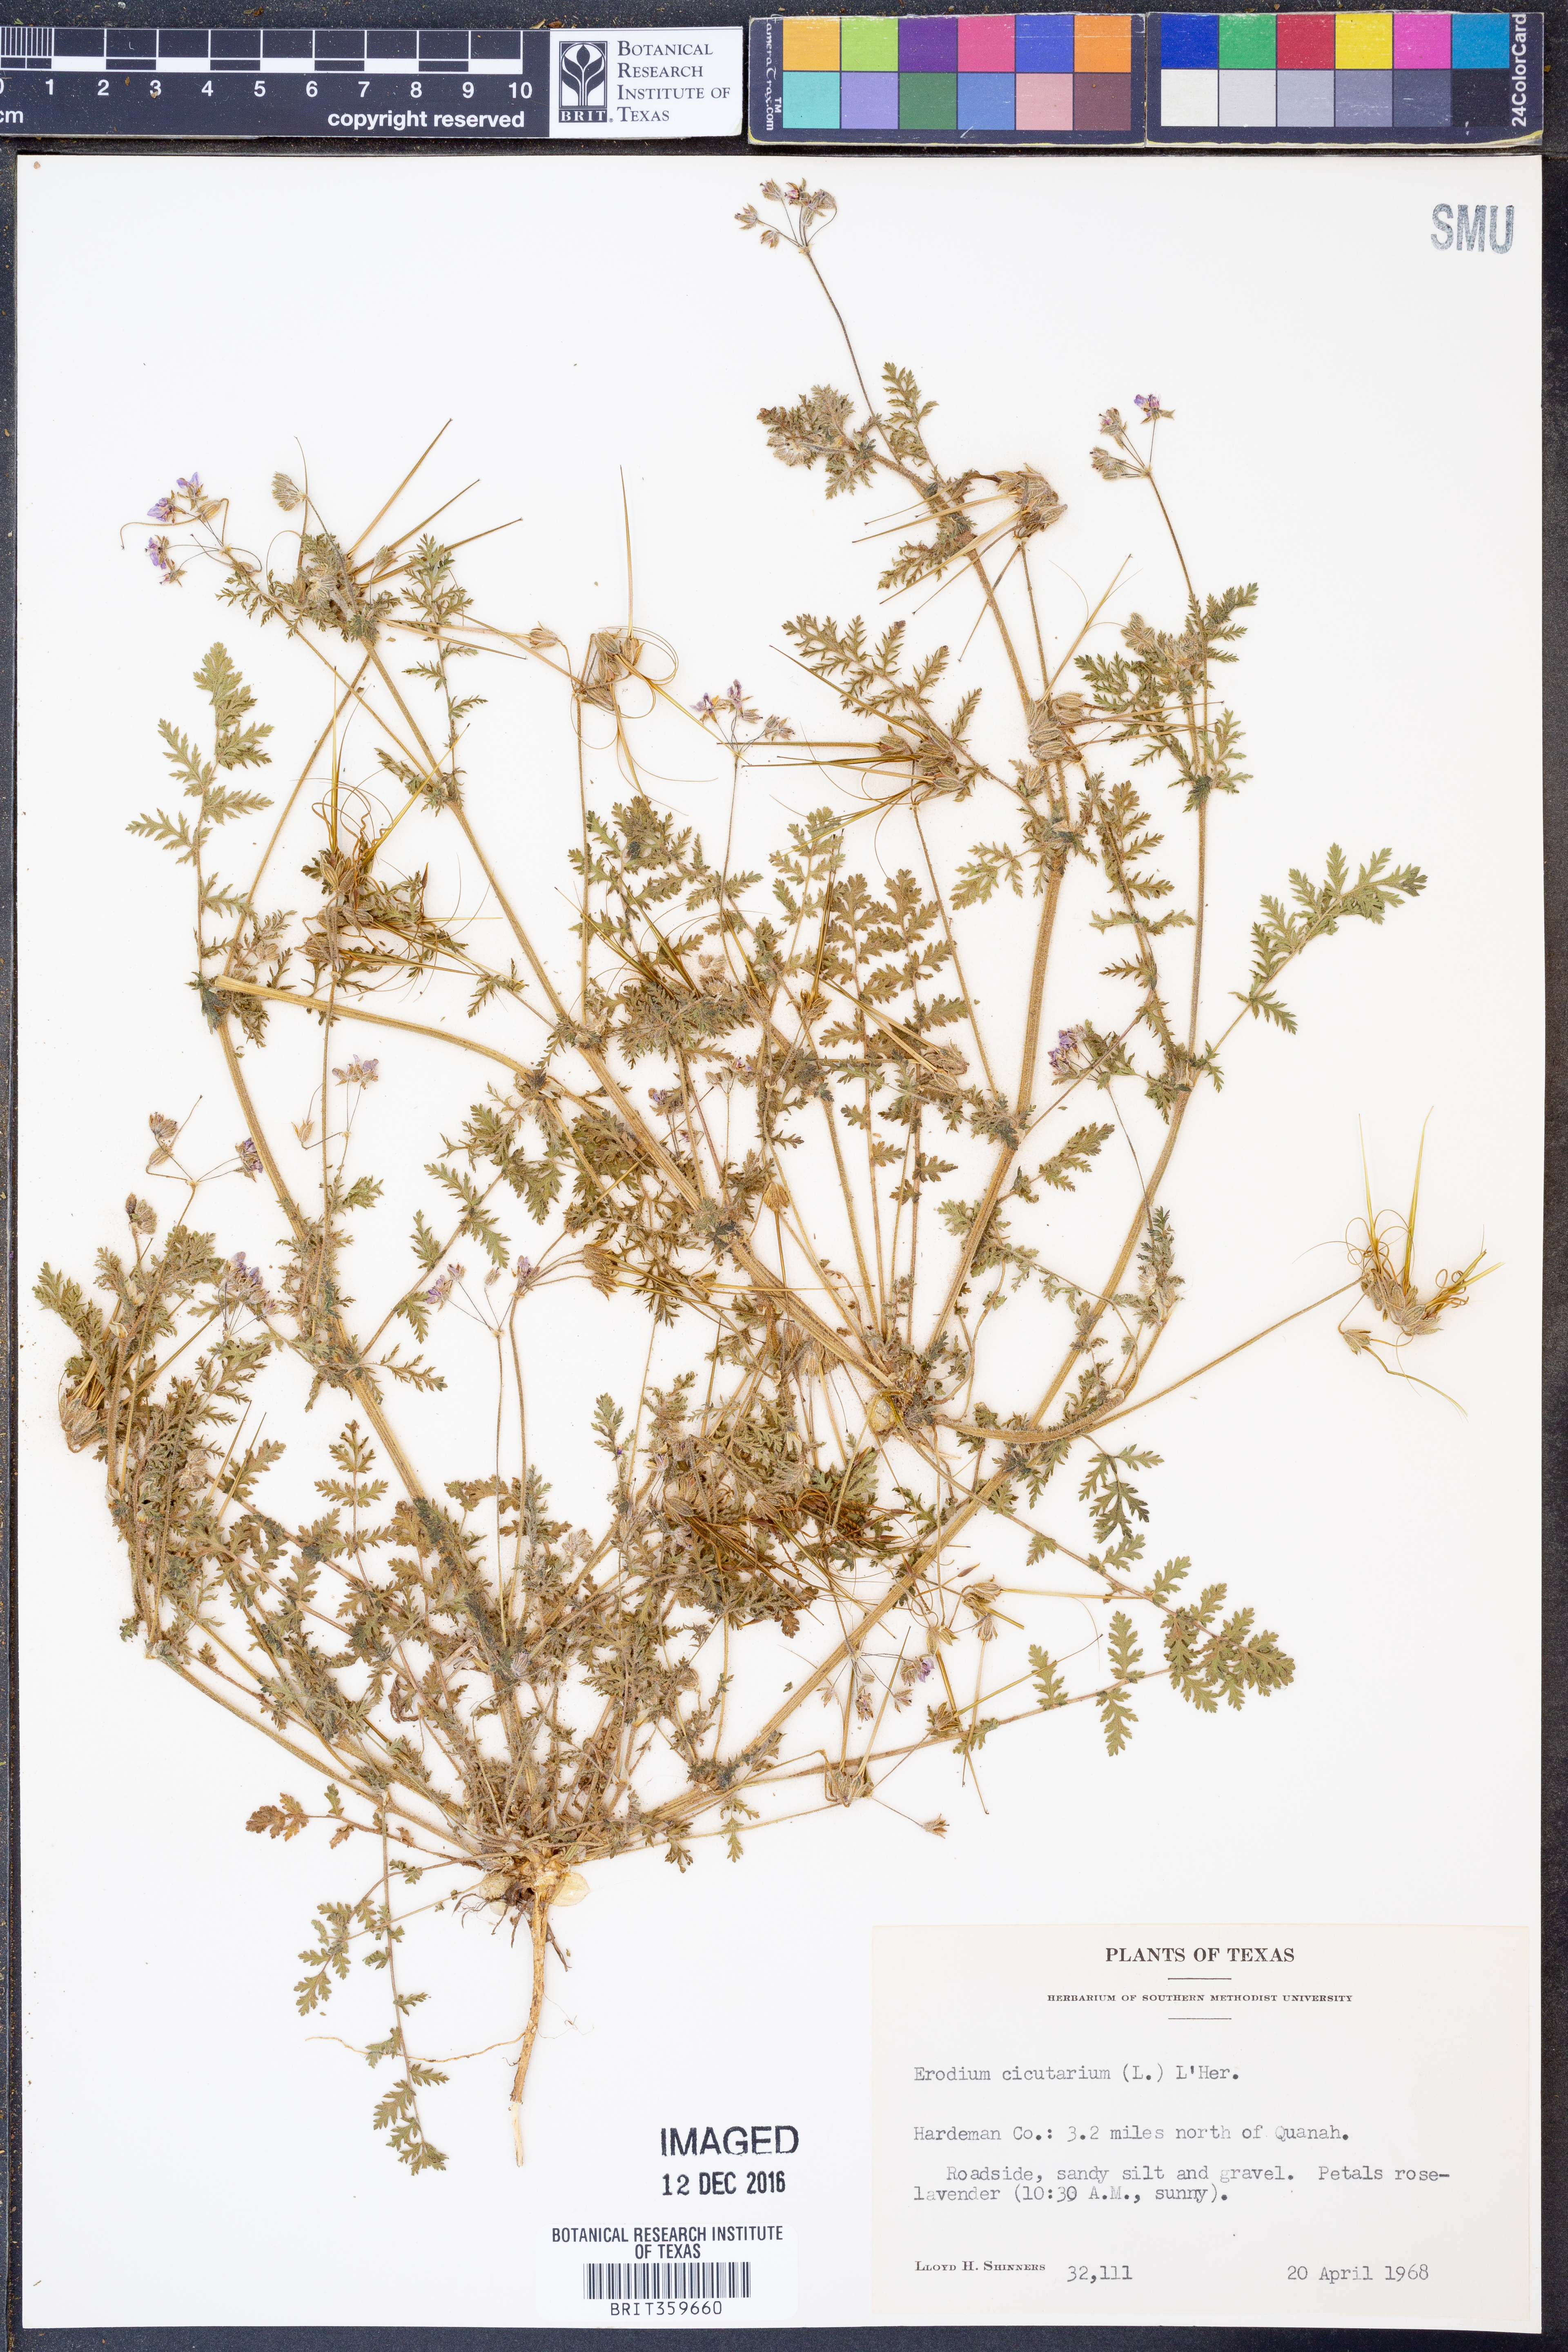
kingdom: Plantae
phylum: Tracheophyta
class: Magnoliopsida
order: Geraniales
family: Geraniaceae
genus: Erodium
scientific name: Erodium cicutarium
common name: Common stork's-bill
